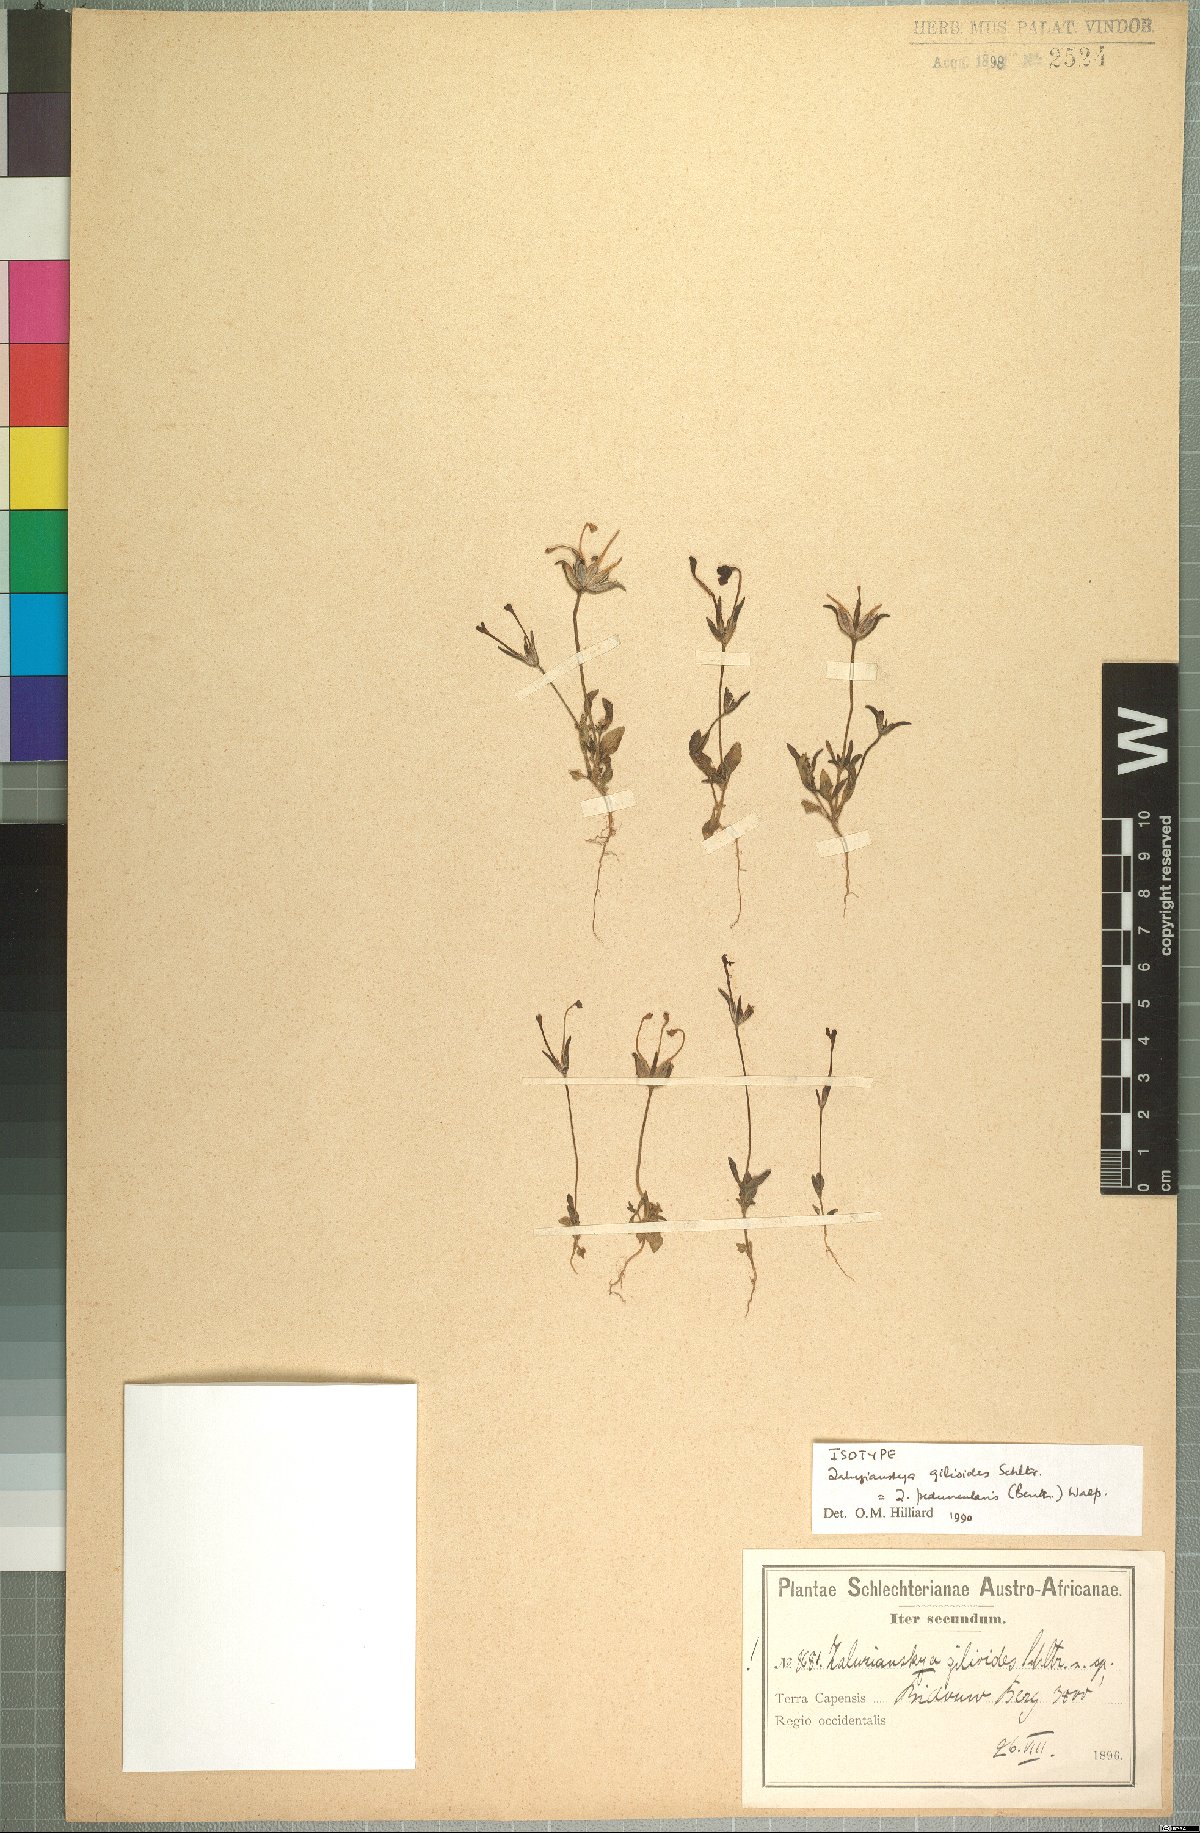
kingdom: Plantae
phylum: Tracheophyta
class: Magnoliopsida
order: Lamiales
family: Scrophulariaceae
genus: Zaluzianskya
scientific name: Zaluzianskya peduncularis
